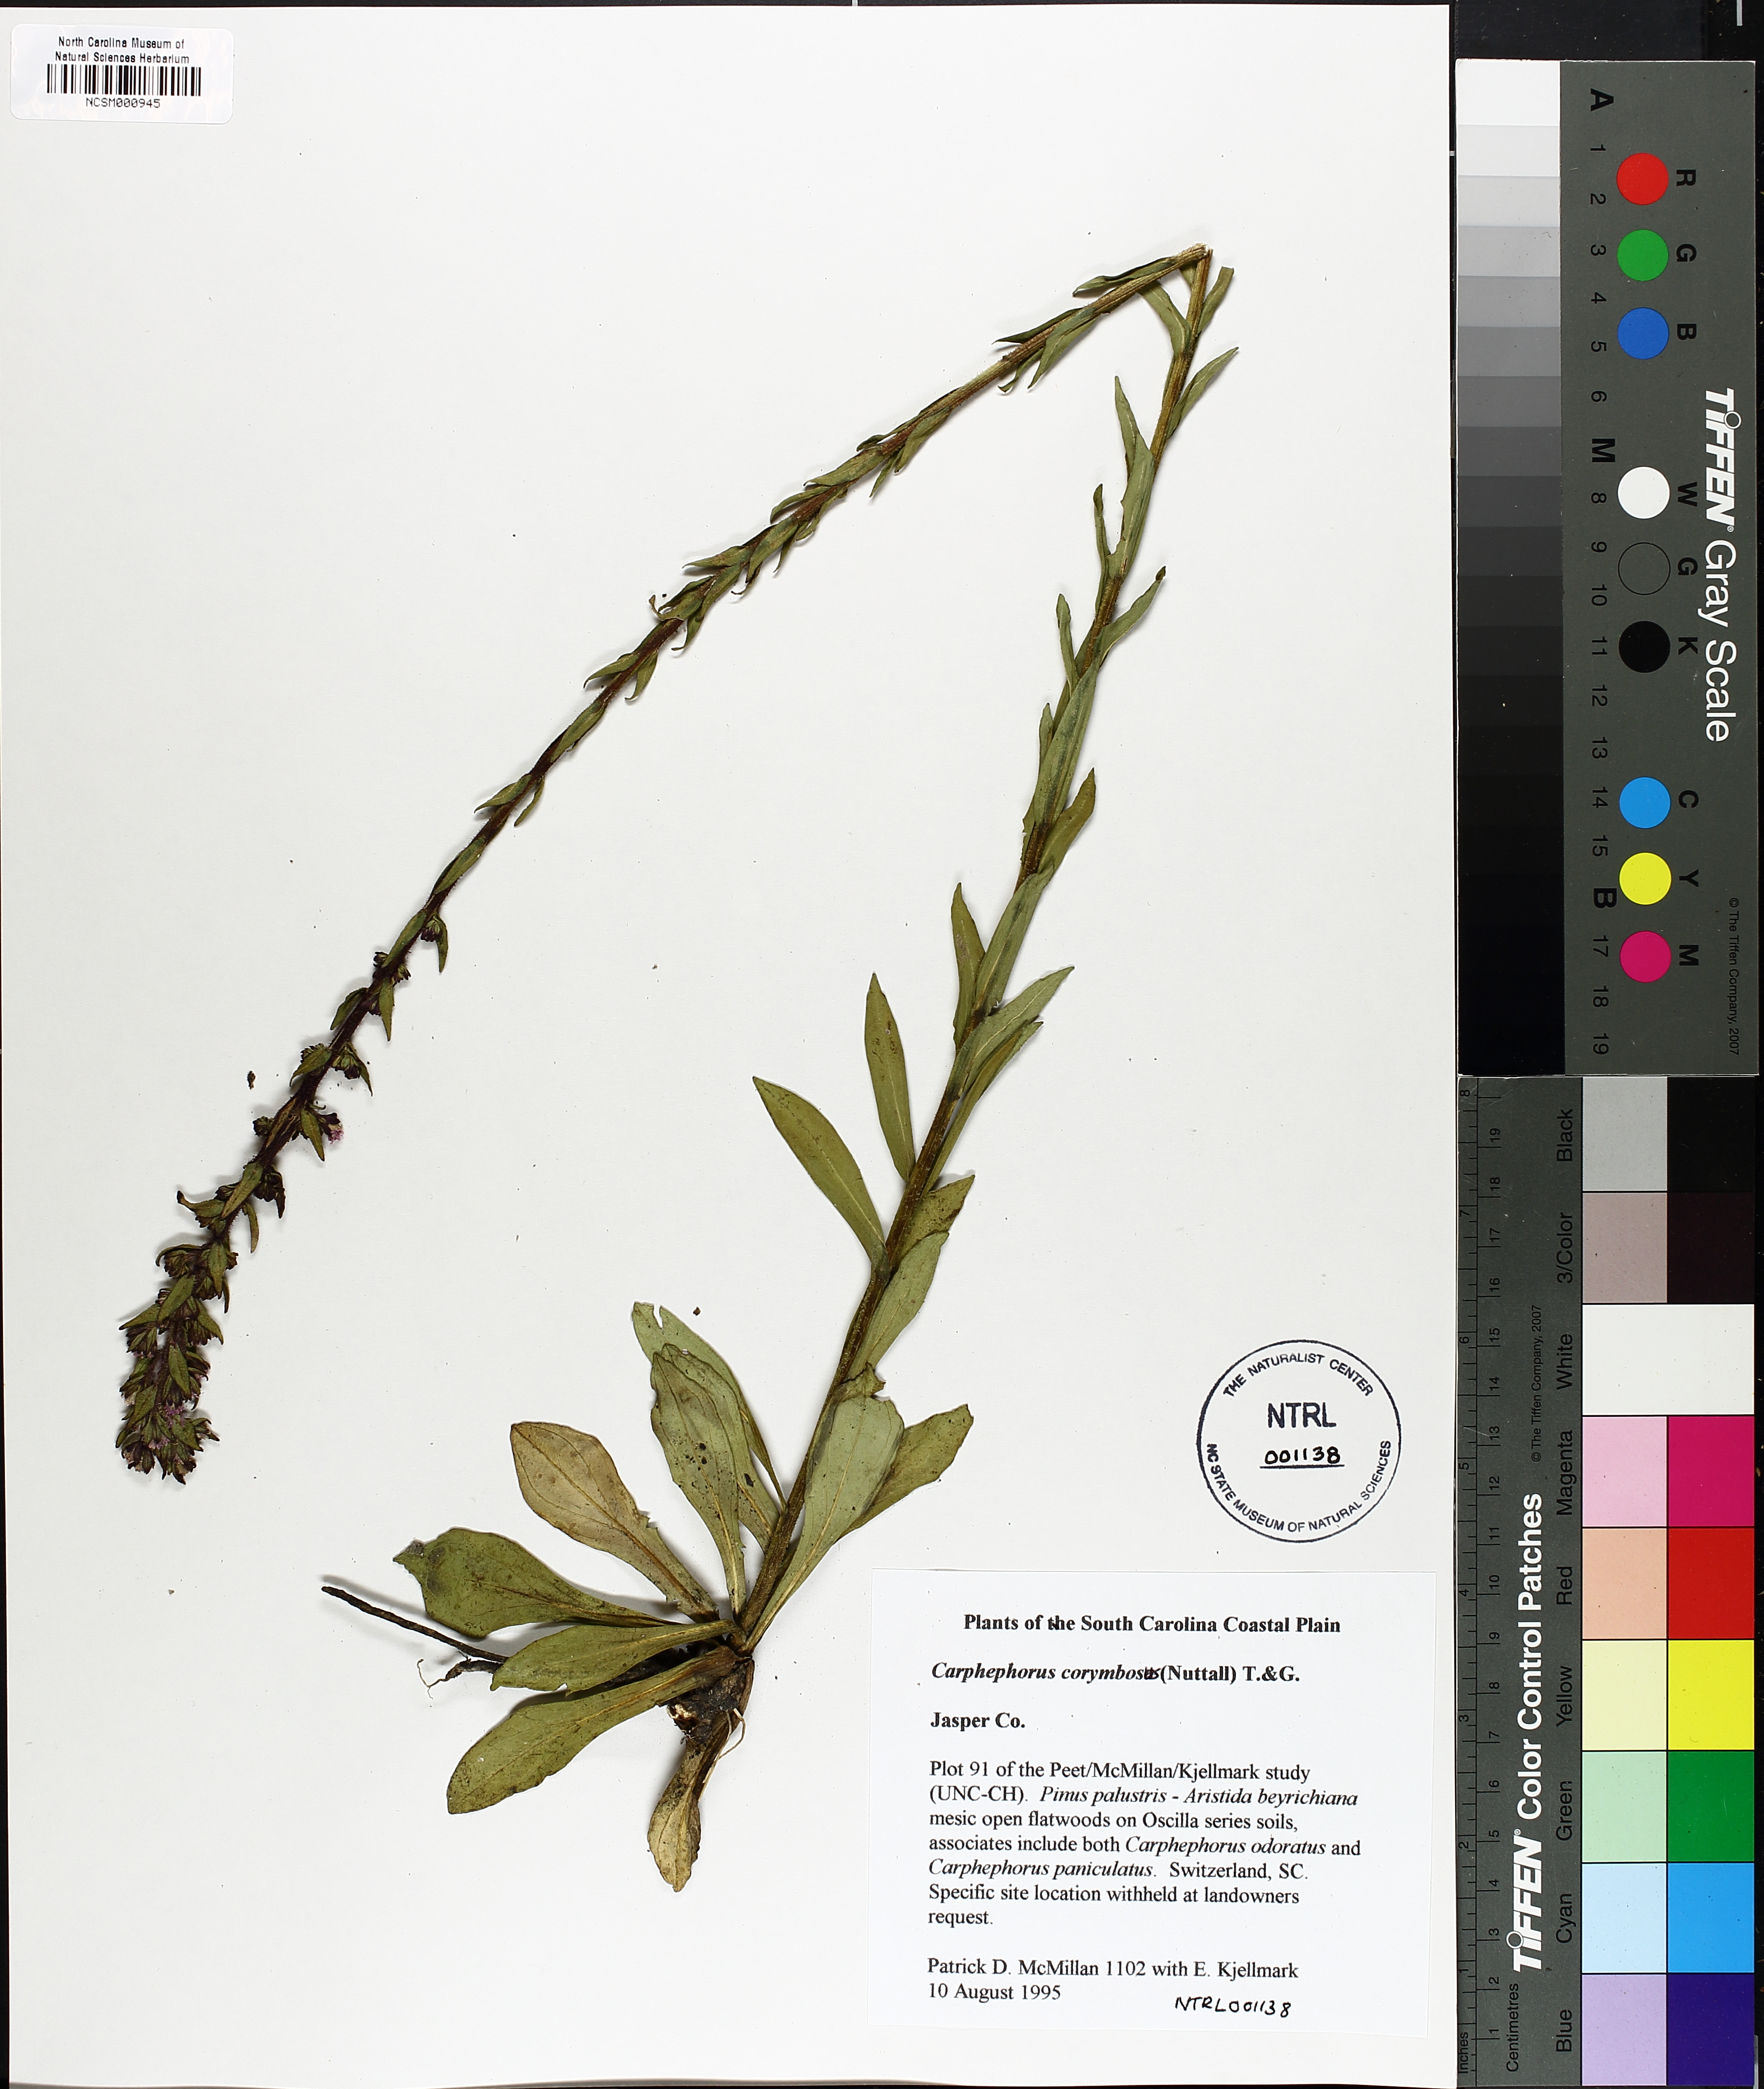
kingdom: Plantae
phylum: Tracheophyta
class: Magnoliopsida
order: Asterales
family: Asteraceae
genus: Carphephorus
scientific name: Carphephorus corymbosus
